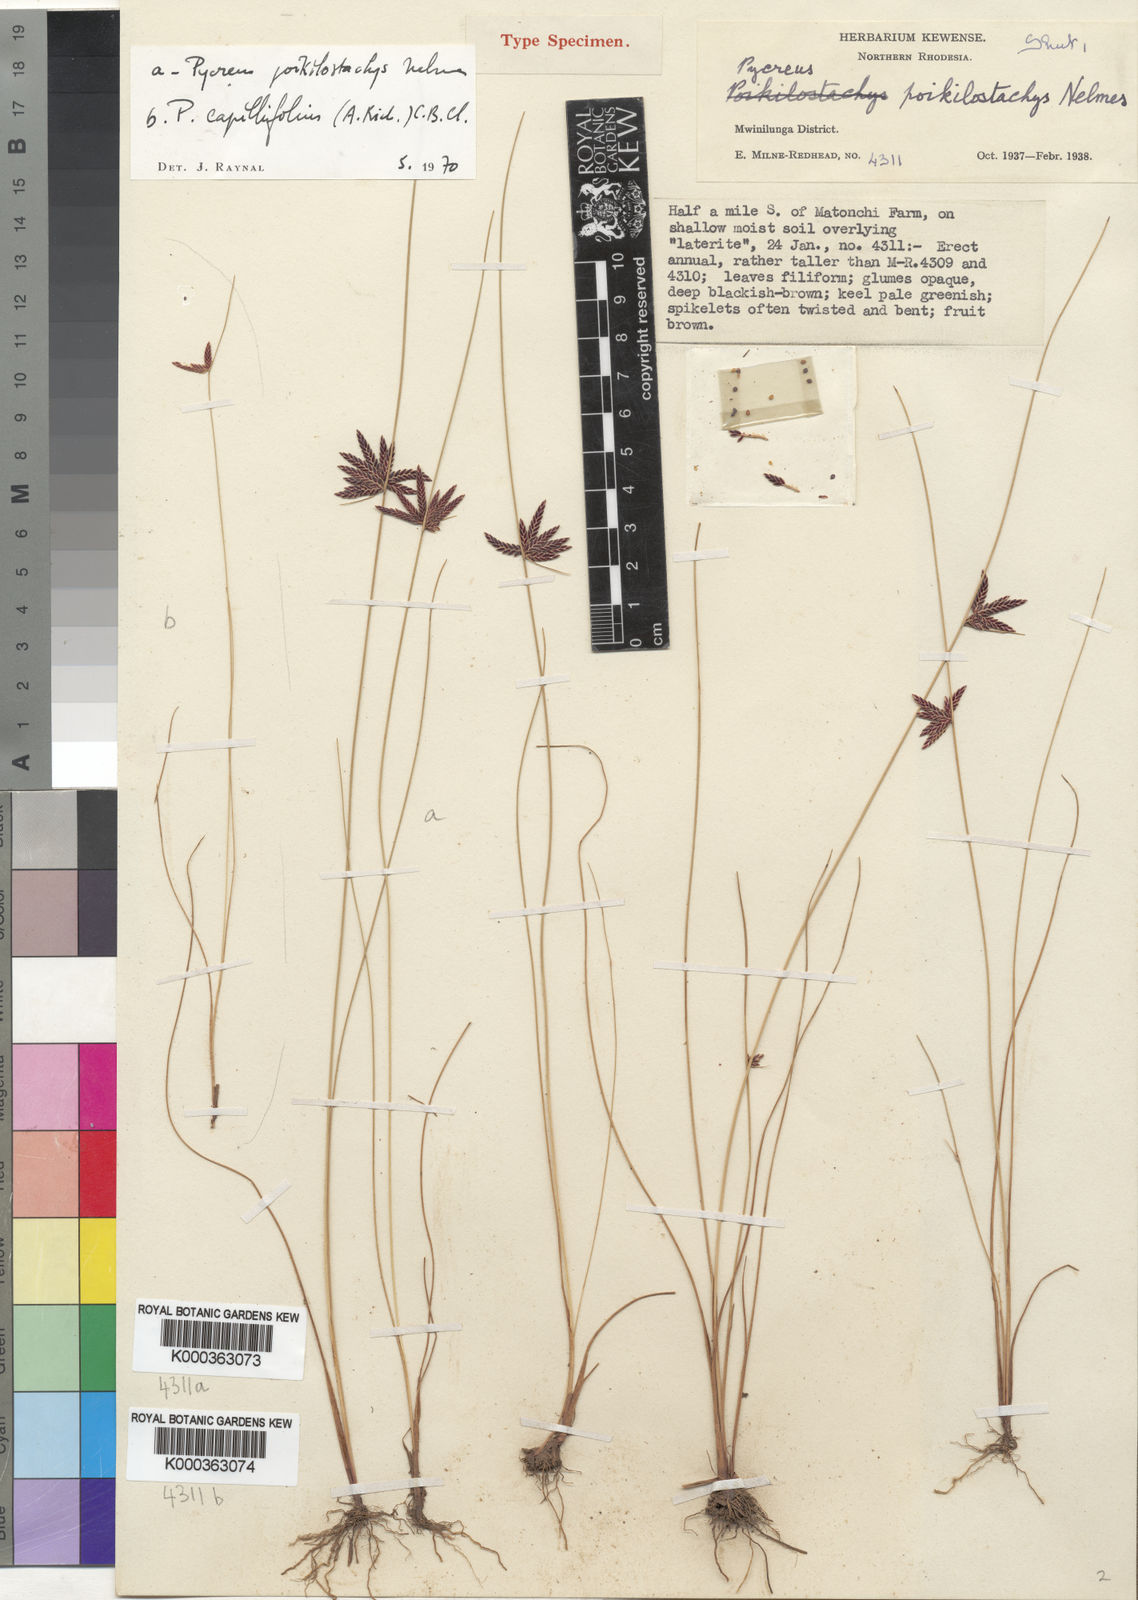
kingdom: Plantae
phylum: Tracheophyta
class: Liliopsida
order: Poales
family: Cyperaceae
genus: Cyperus
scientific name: Cyperus poikilostachys
